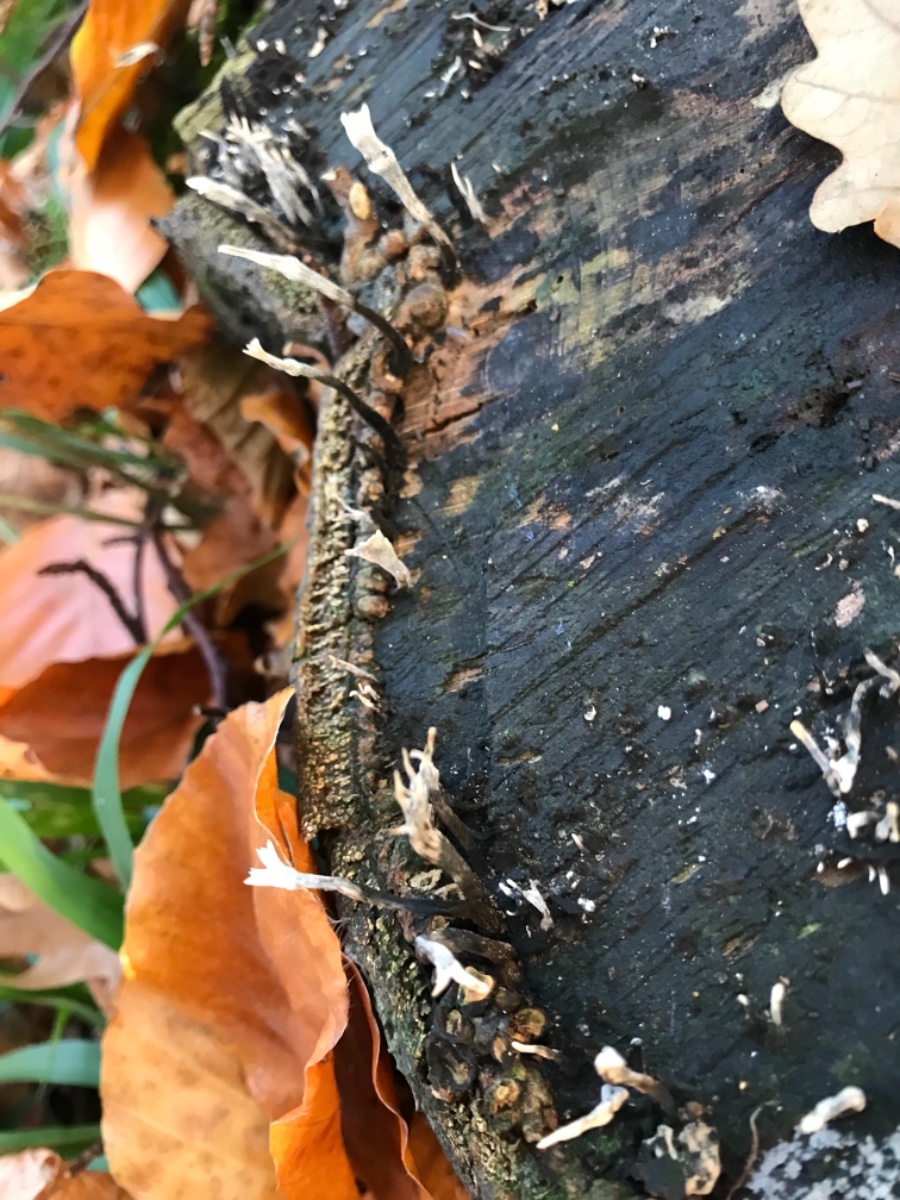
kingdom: Fungi
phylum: Ascomycota
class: Sordariomycetes
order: Xylariales
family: Xylariaceae
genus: Xylaria
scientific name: Xylaria hypoxylon
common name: grenet stødsvamp
